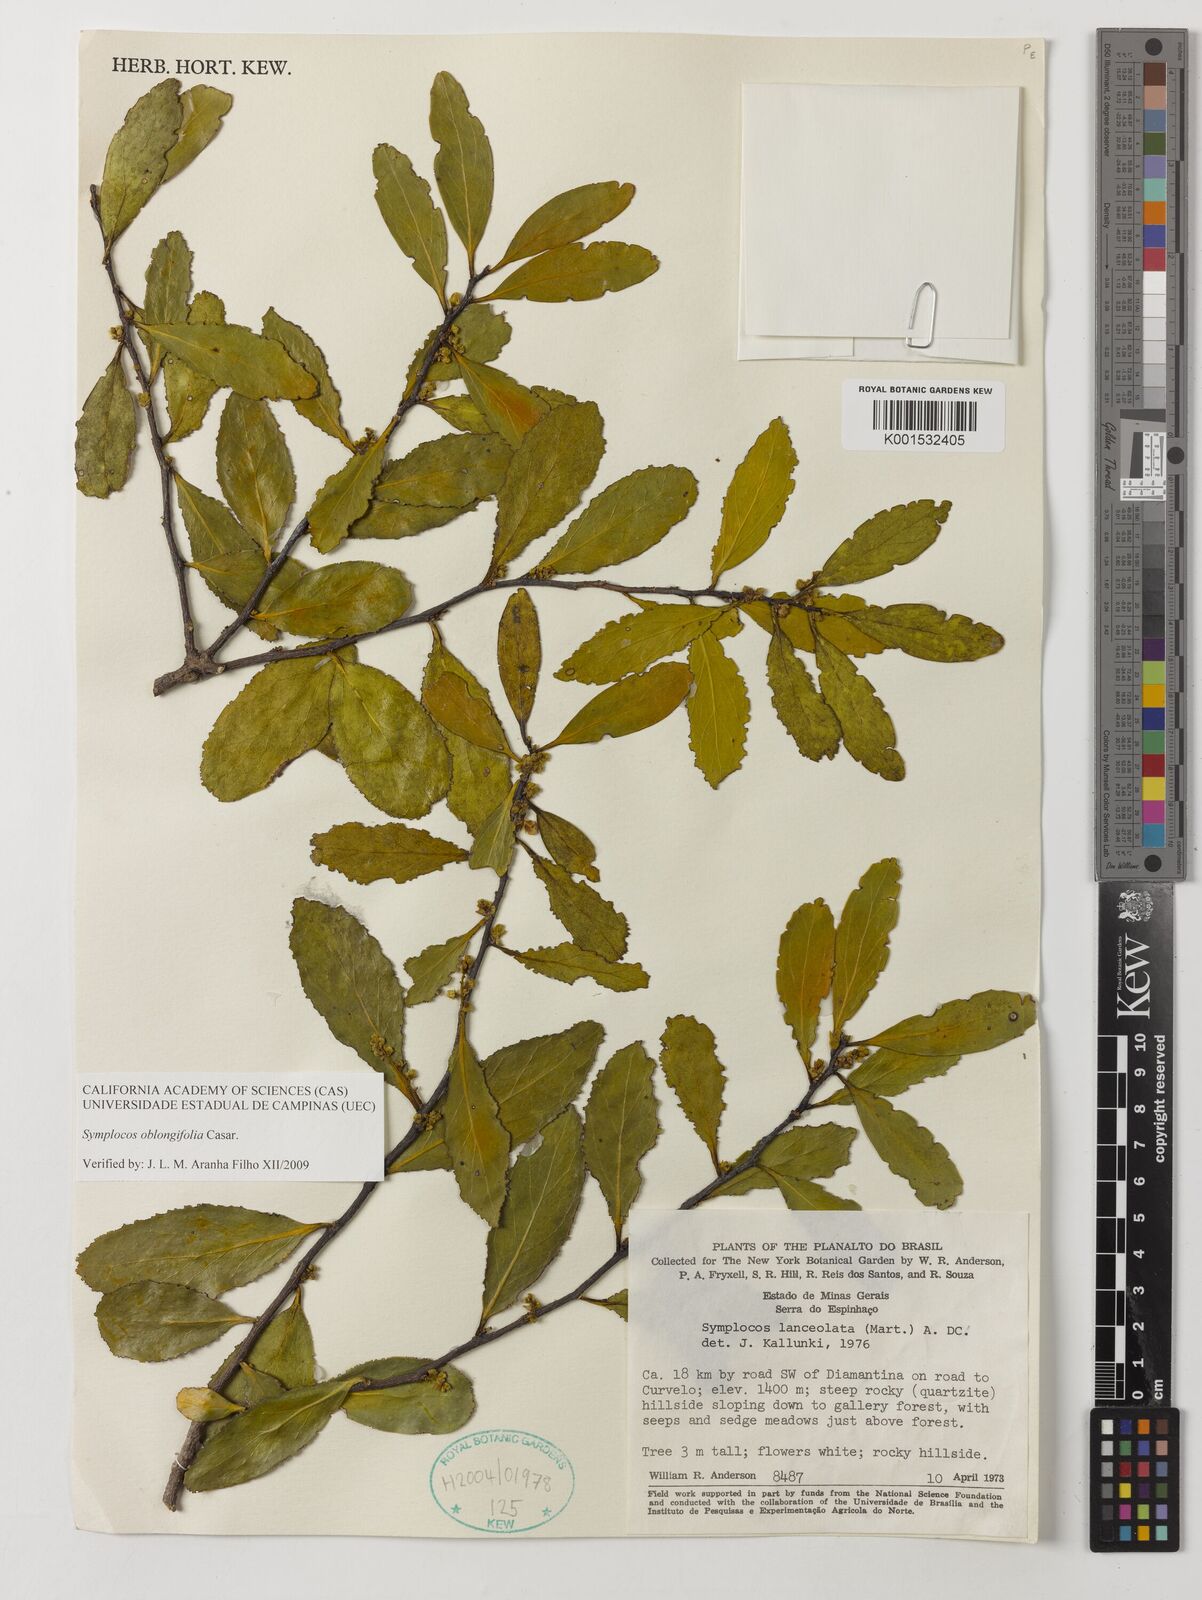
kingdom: Plantae
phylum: Tracheophyta
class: Magnoliopsida
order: Ericales
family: Symplocaceae
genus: Symplocos
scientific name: Symplocos oblongifolia
